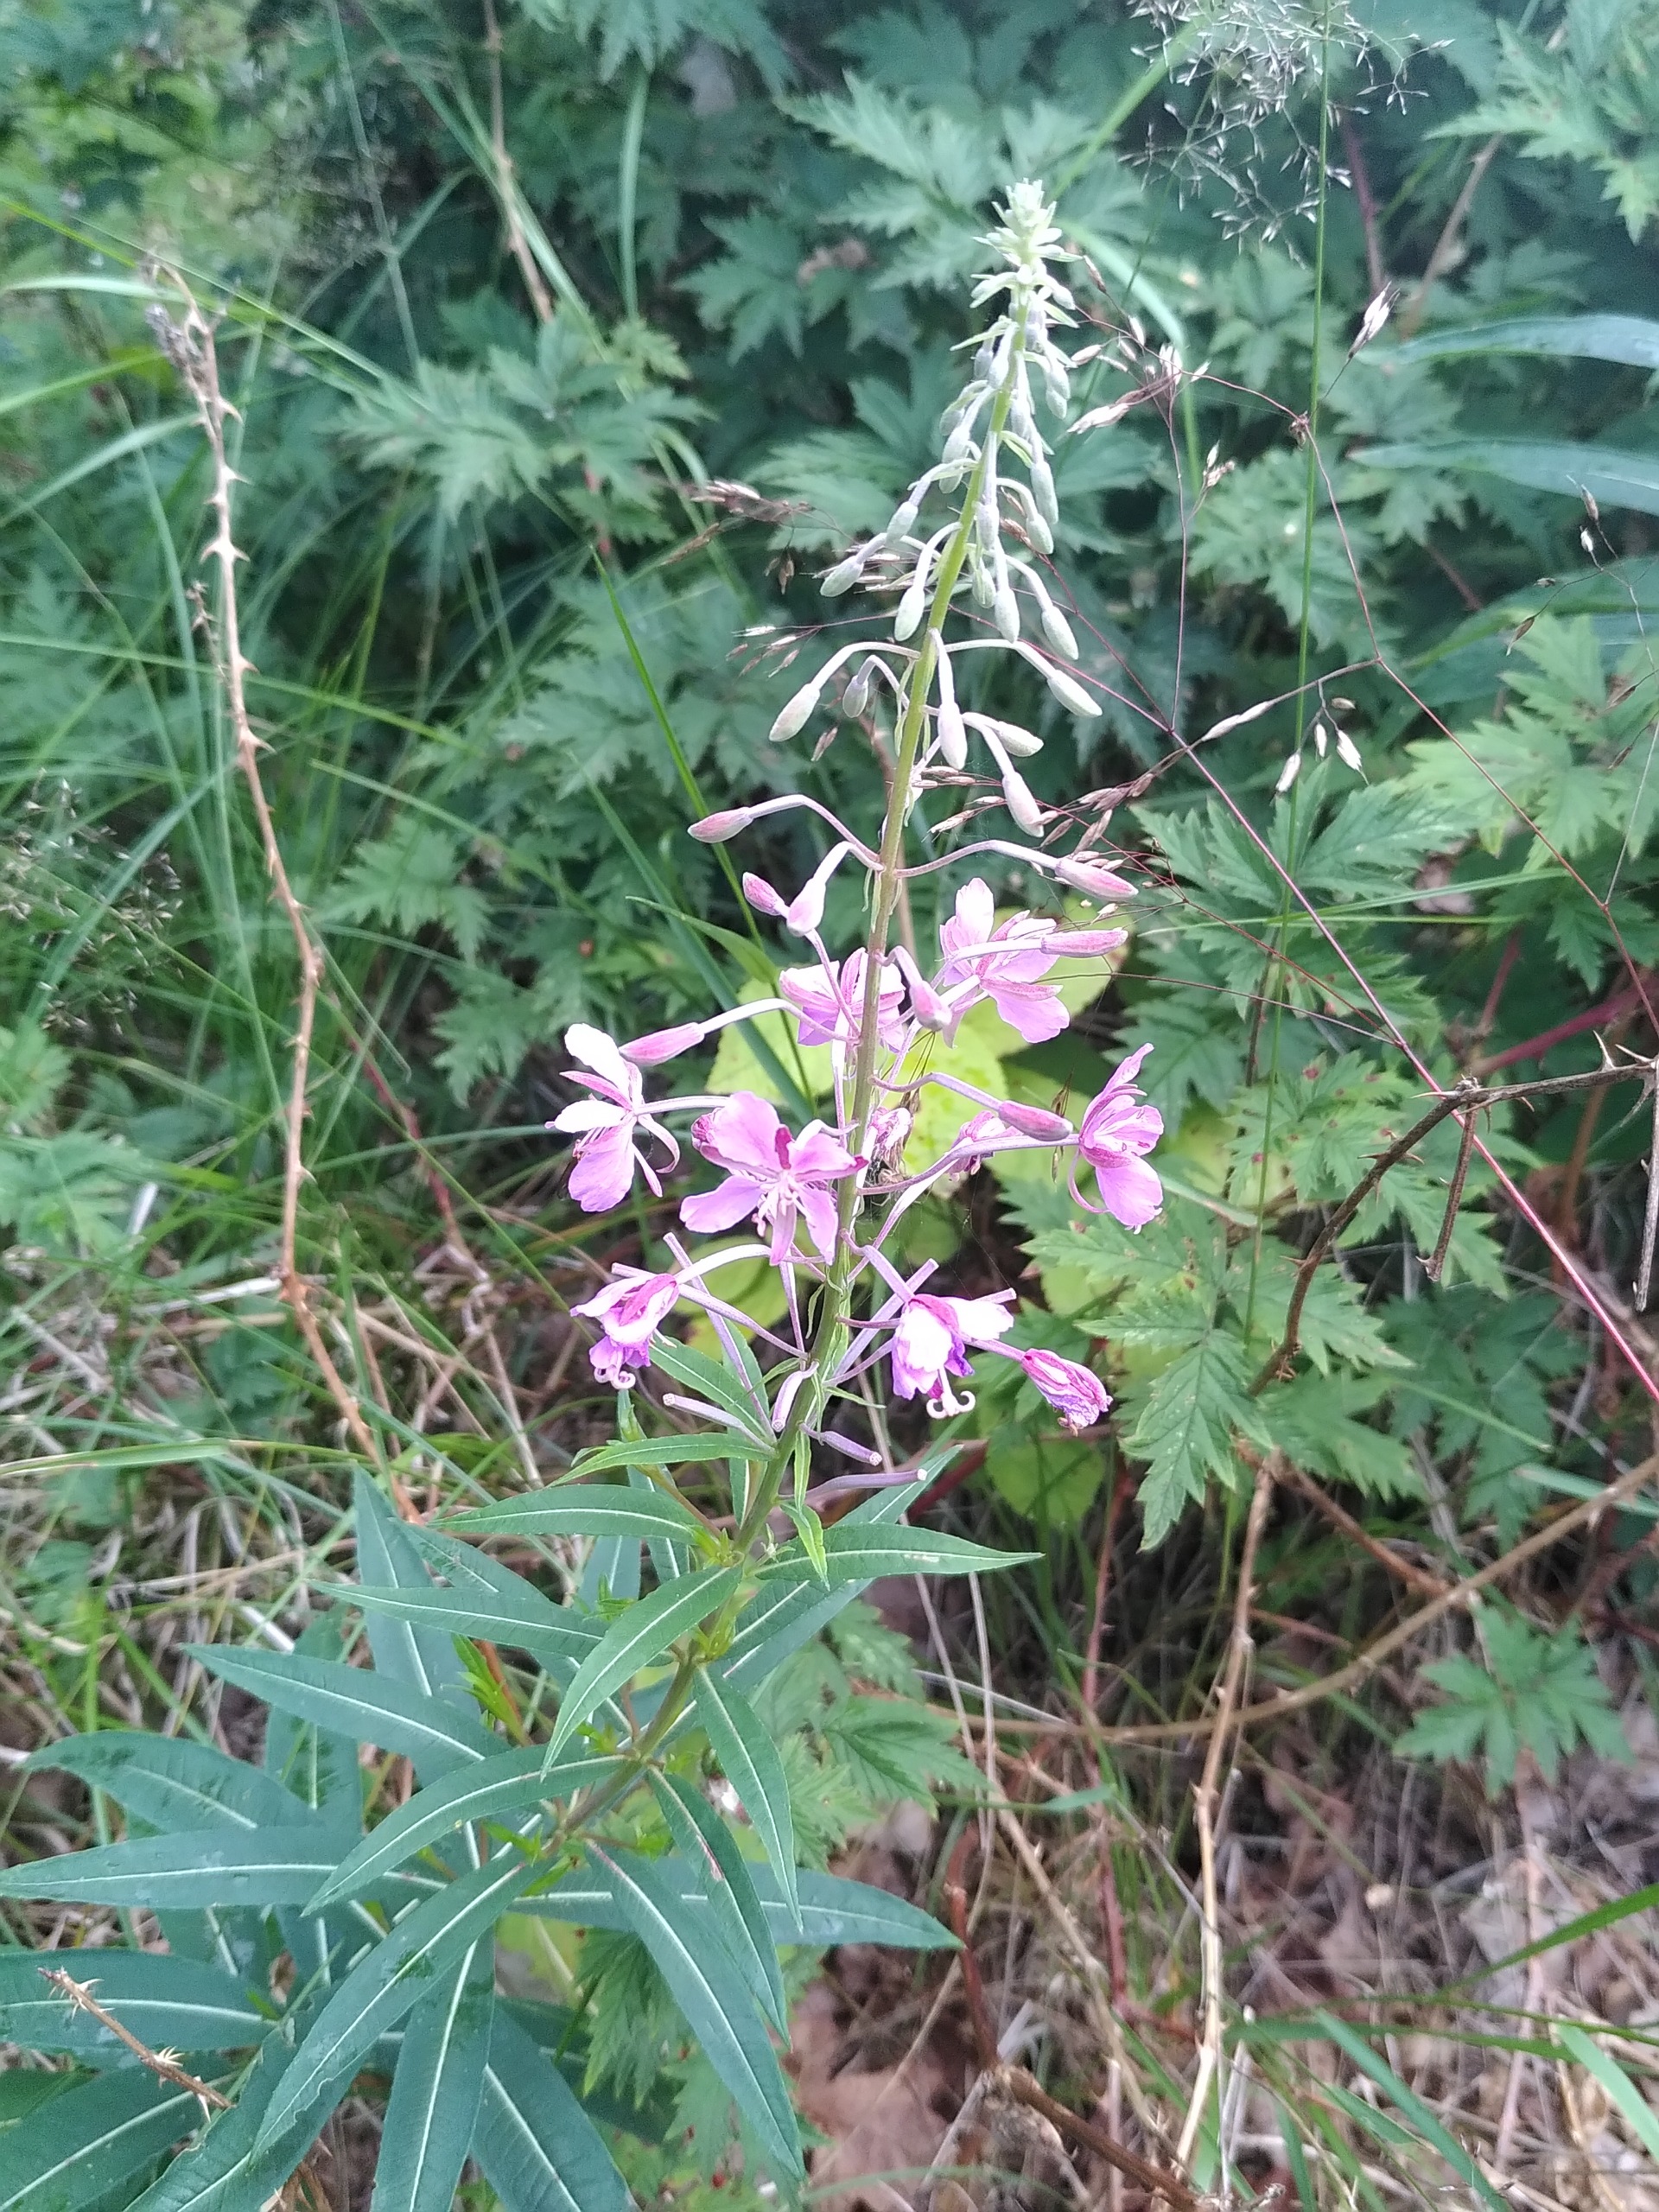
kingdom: Plantae
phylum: Tracheophyta
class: Magnoliopsida
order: Myrtales
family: Onagraceae
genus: Chamaenerion
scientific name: Chamaenerion angustifolium
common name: Gederams
